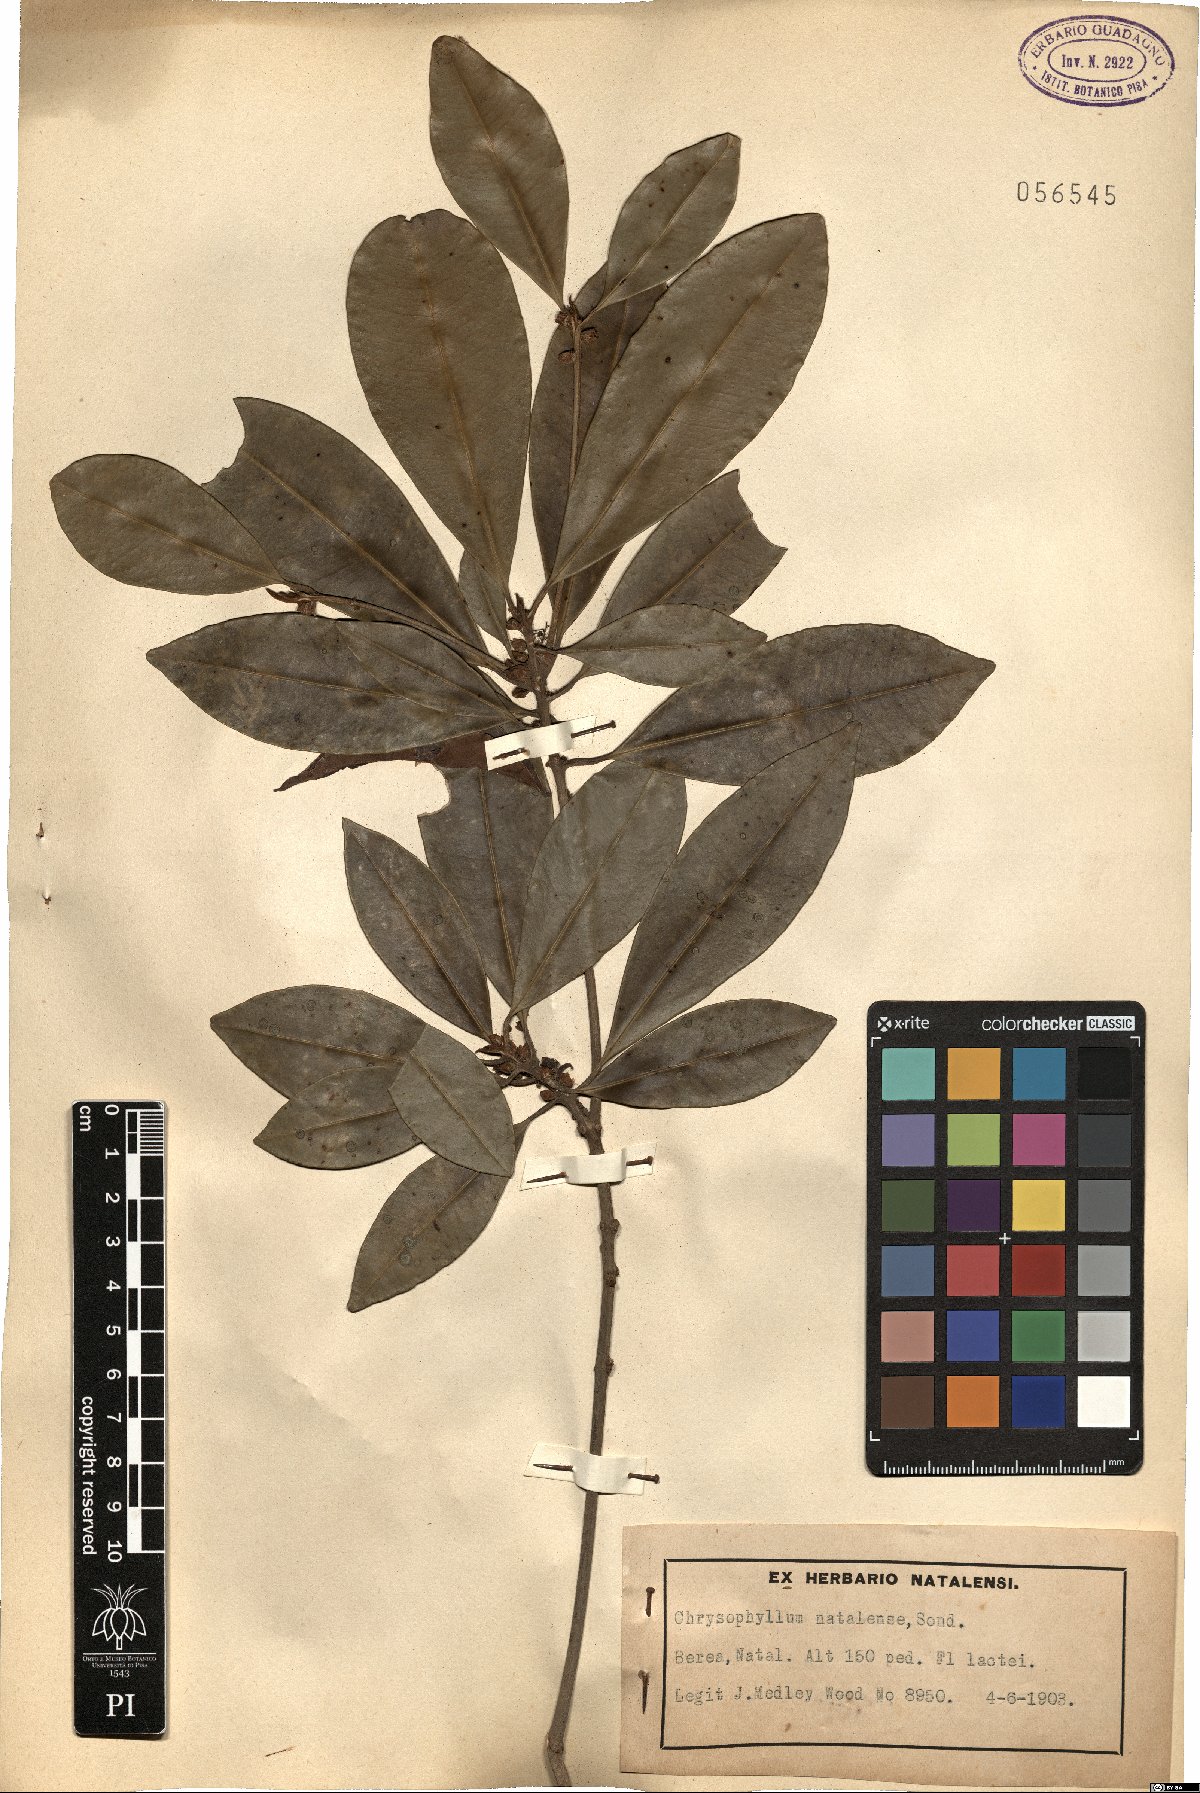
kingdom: Plantae
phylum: Tracheophyta
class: Magnoliopsida
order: Ericales
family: Sapotaceae
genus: Englerophytum
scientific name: Englerophytum natalense
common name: Silver-leaved milkplum
